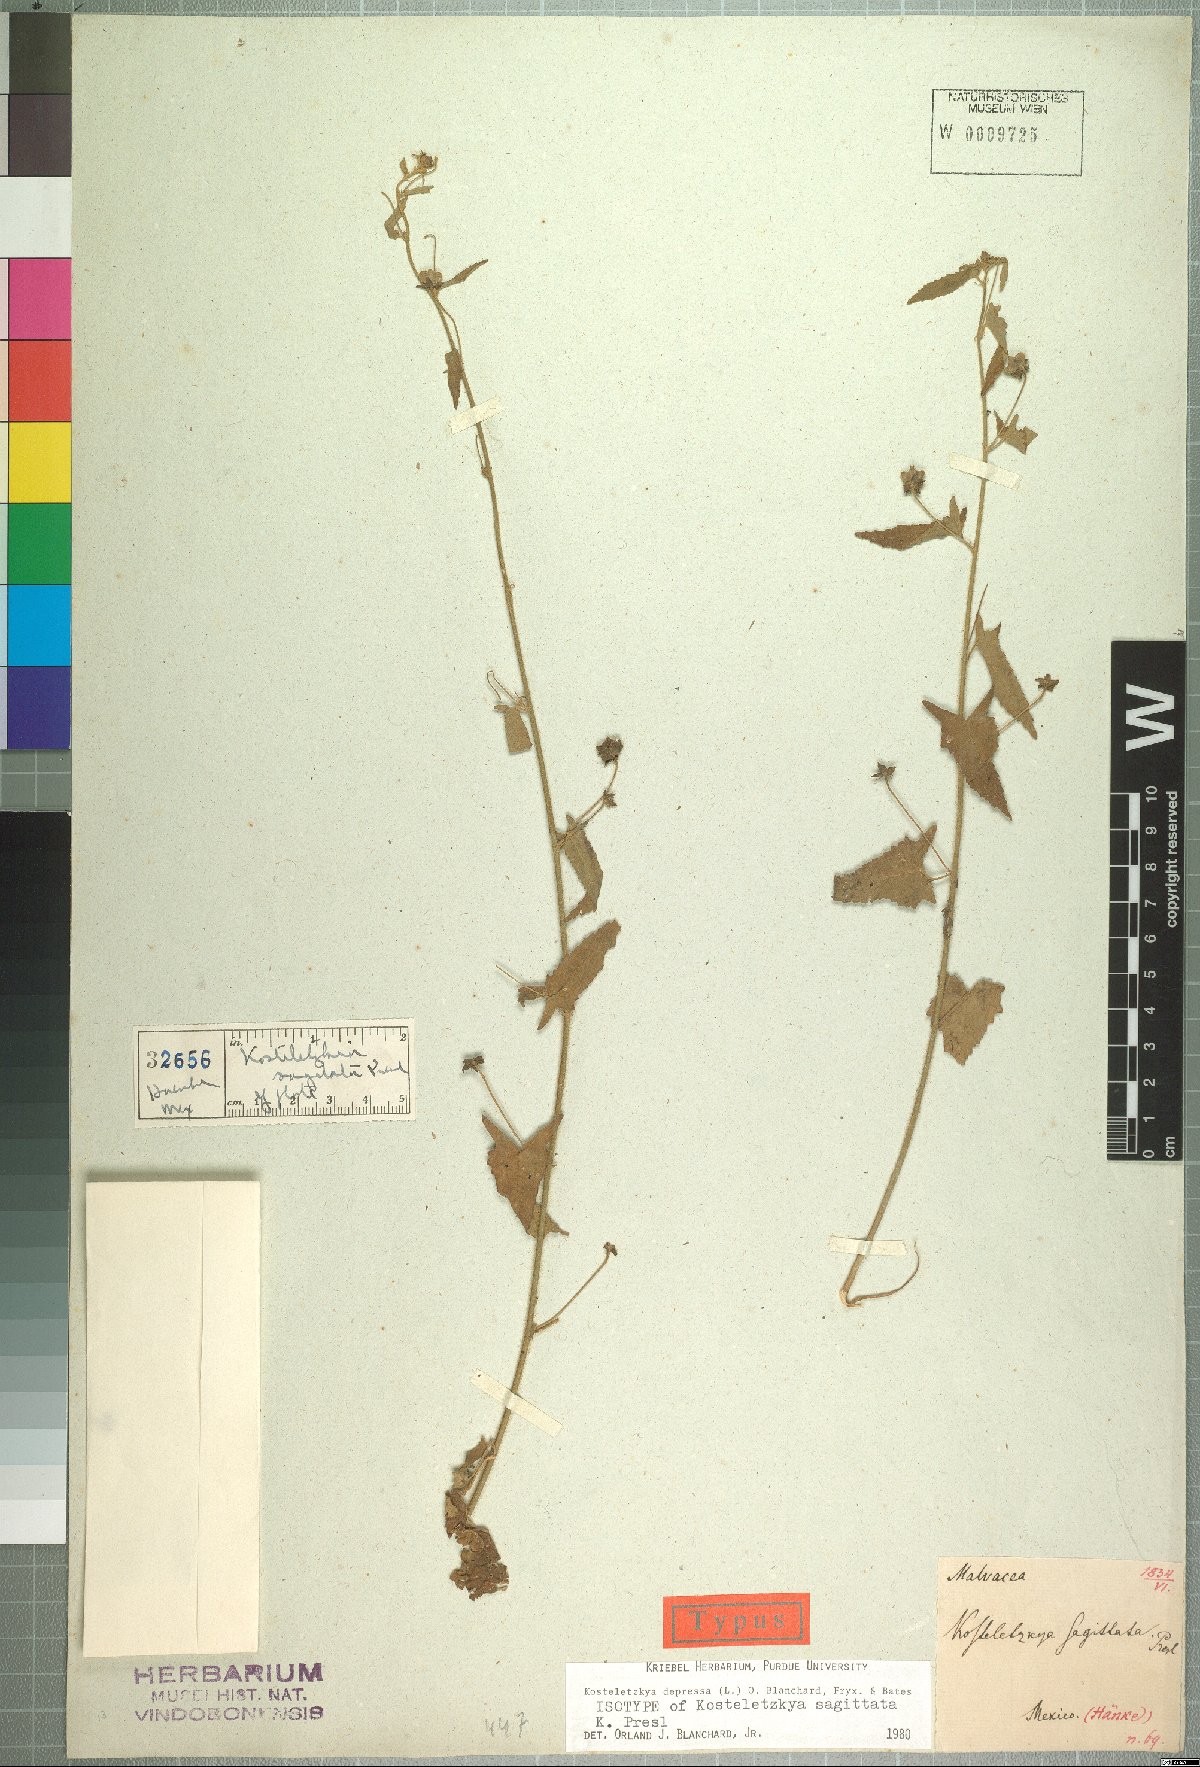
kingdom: Plantae
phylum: Tracheophyta
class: Magnoliopsida
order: Malvales
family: Malvaceae
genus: Kosteletzkya
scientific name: Kosteletzkya depressa
